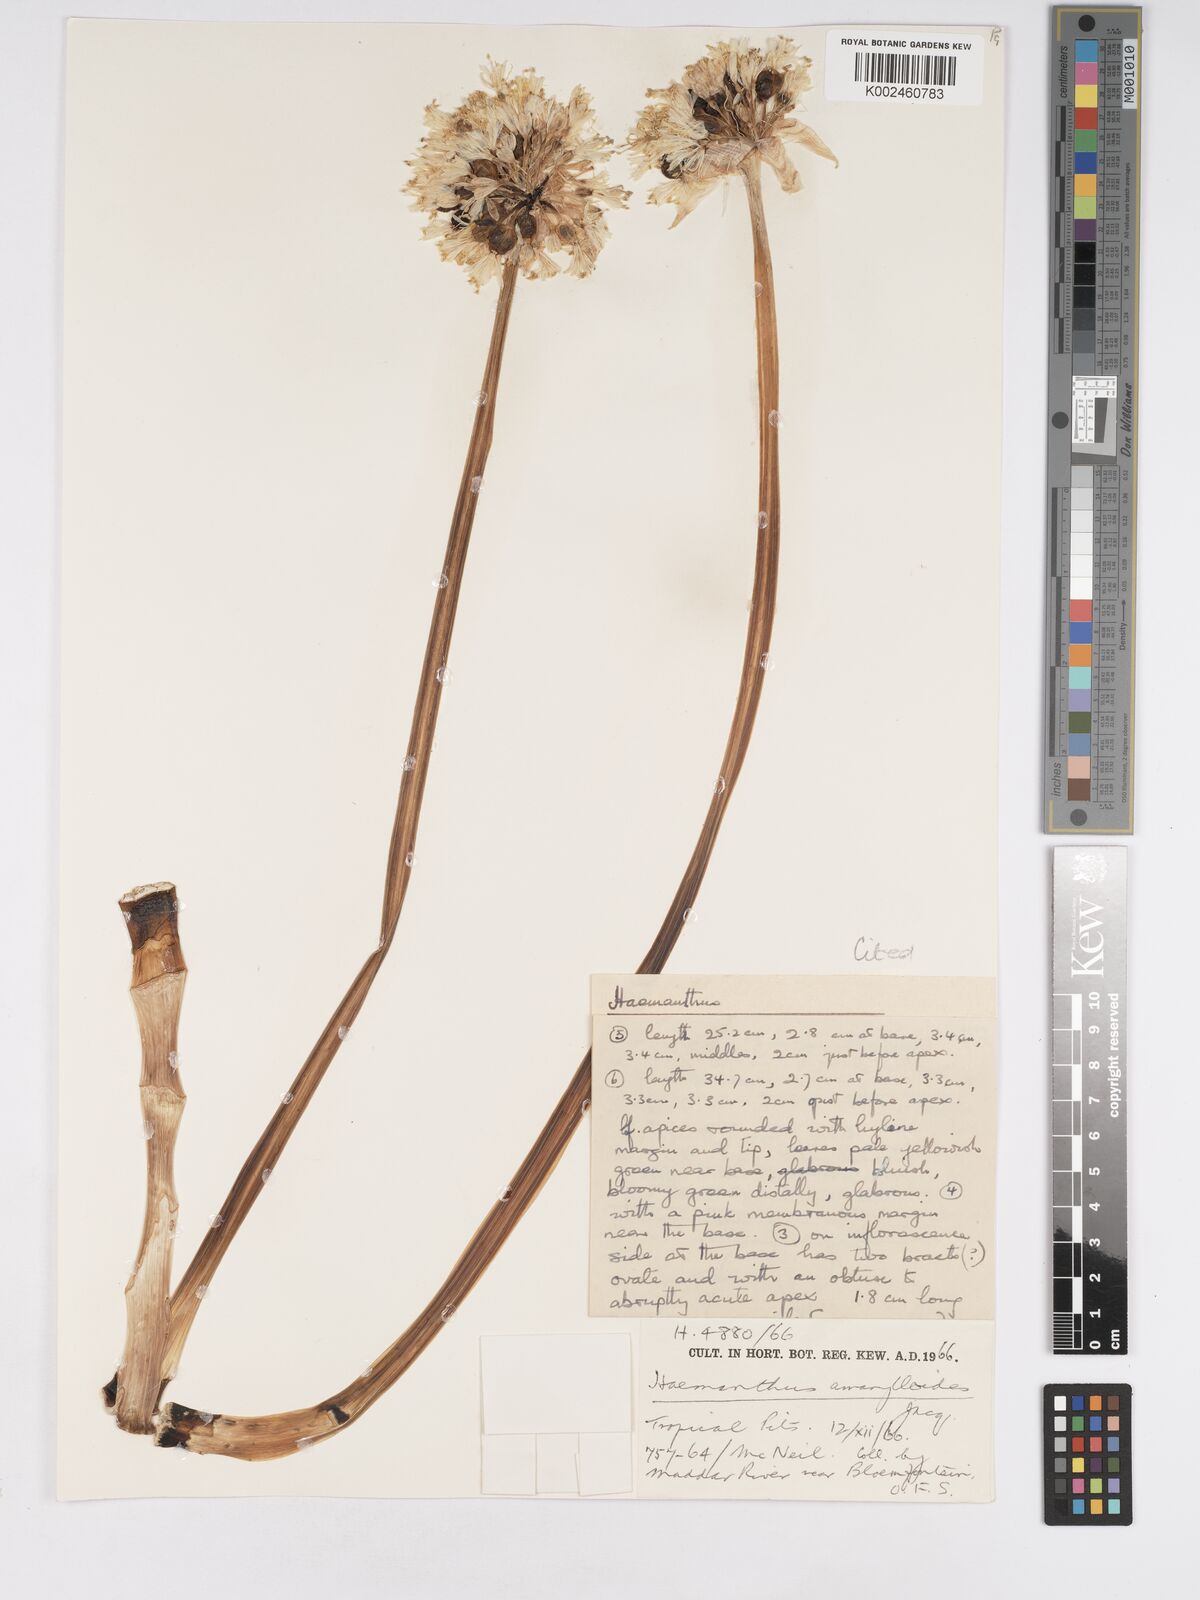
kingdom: Plantae
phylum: Tracheophyta
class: Liliopsida
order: Asparagales
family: Amaryllidaceae
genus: Haemanthus
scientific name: Haemanthus montanus
